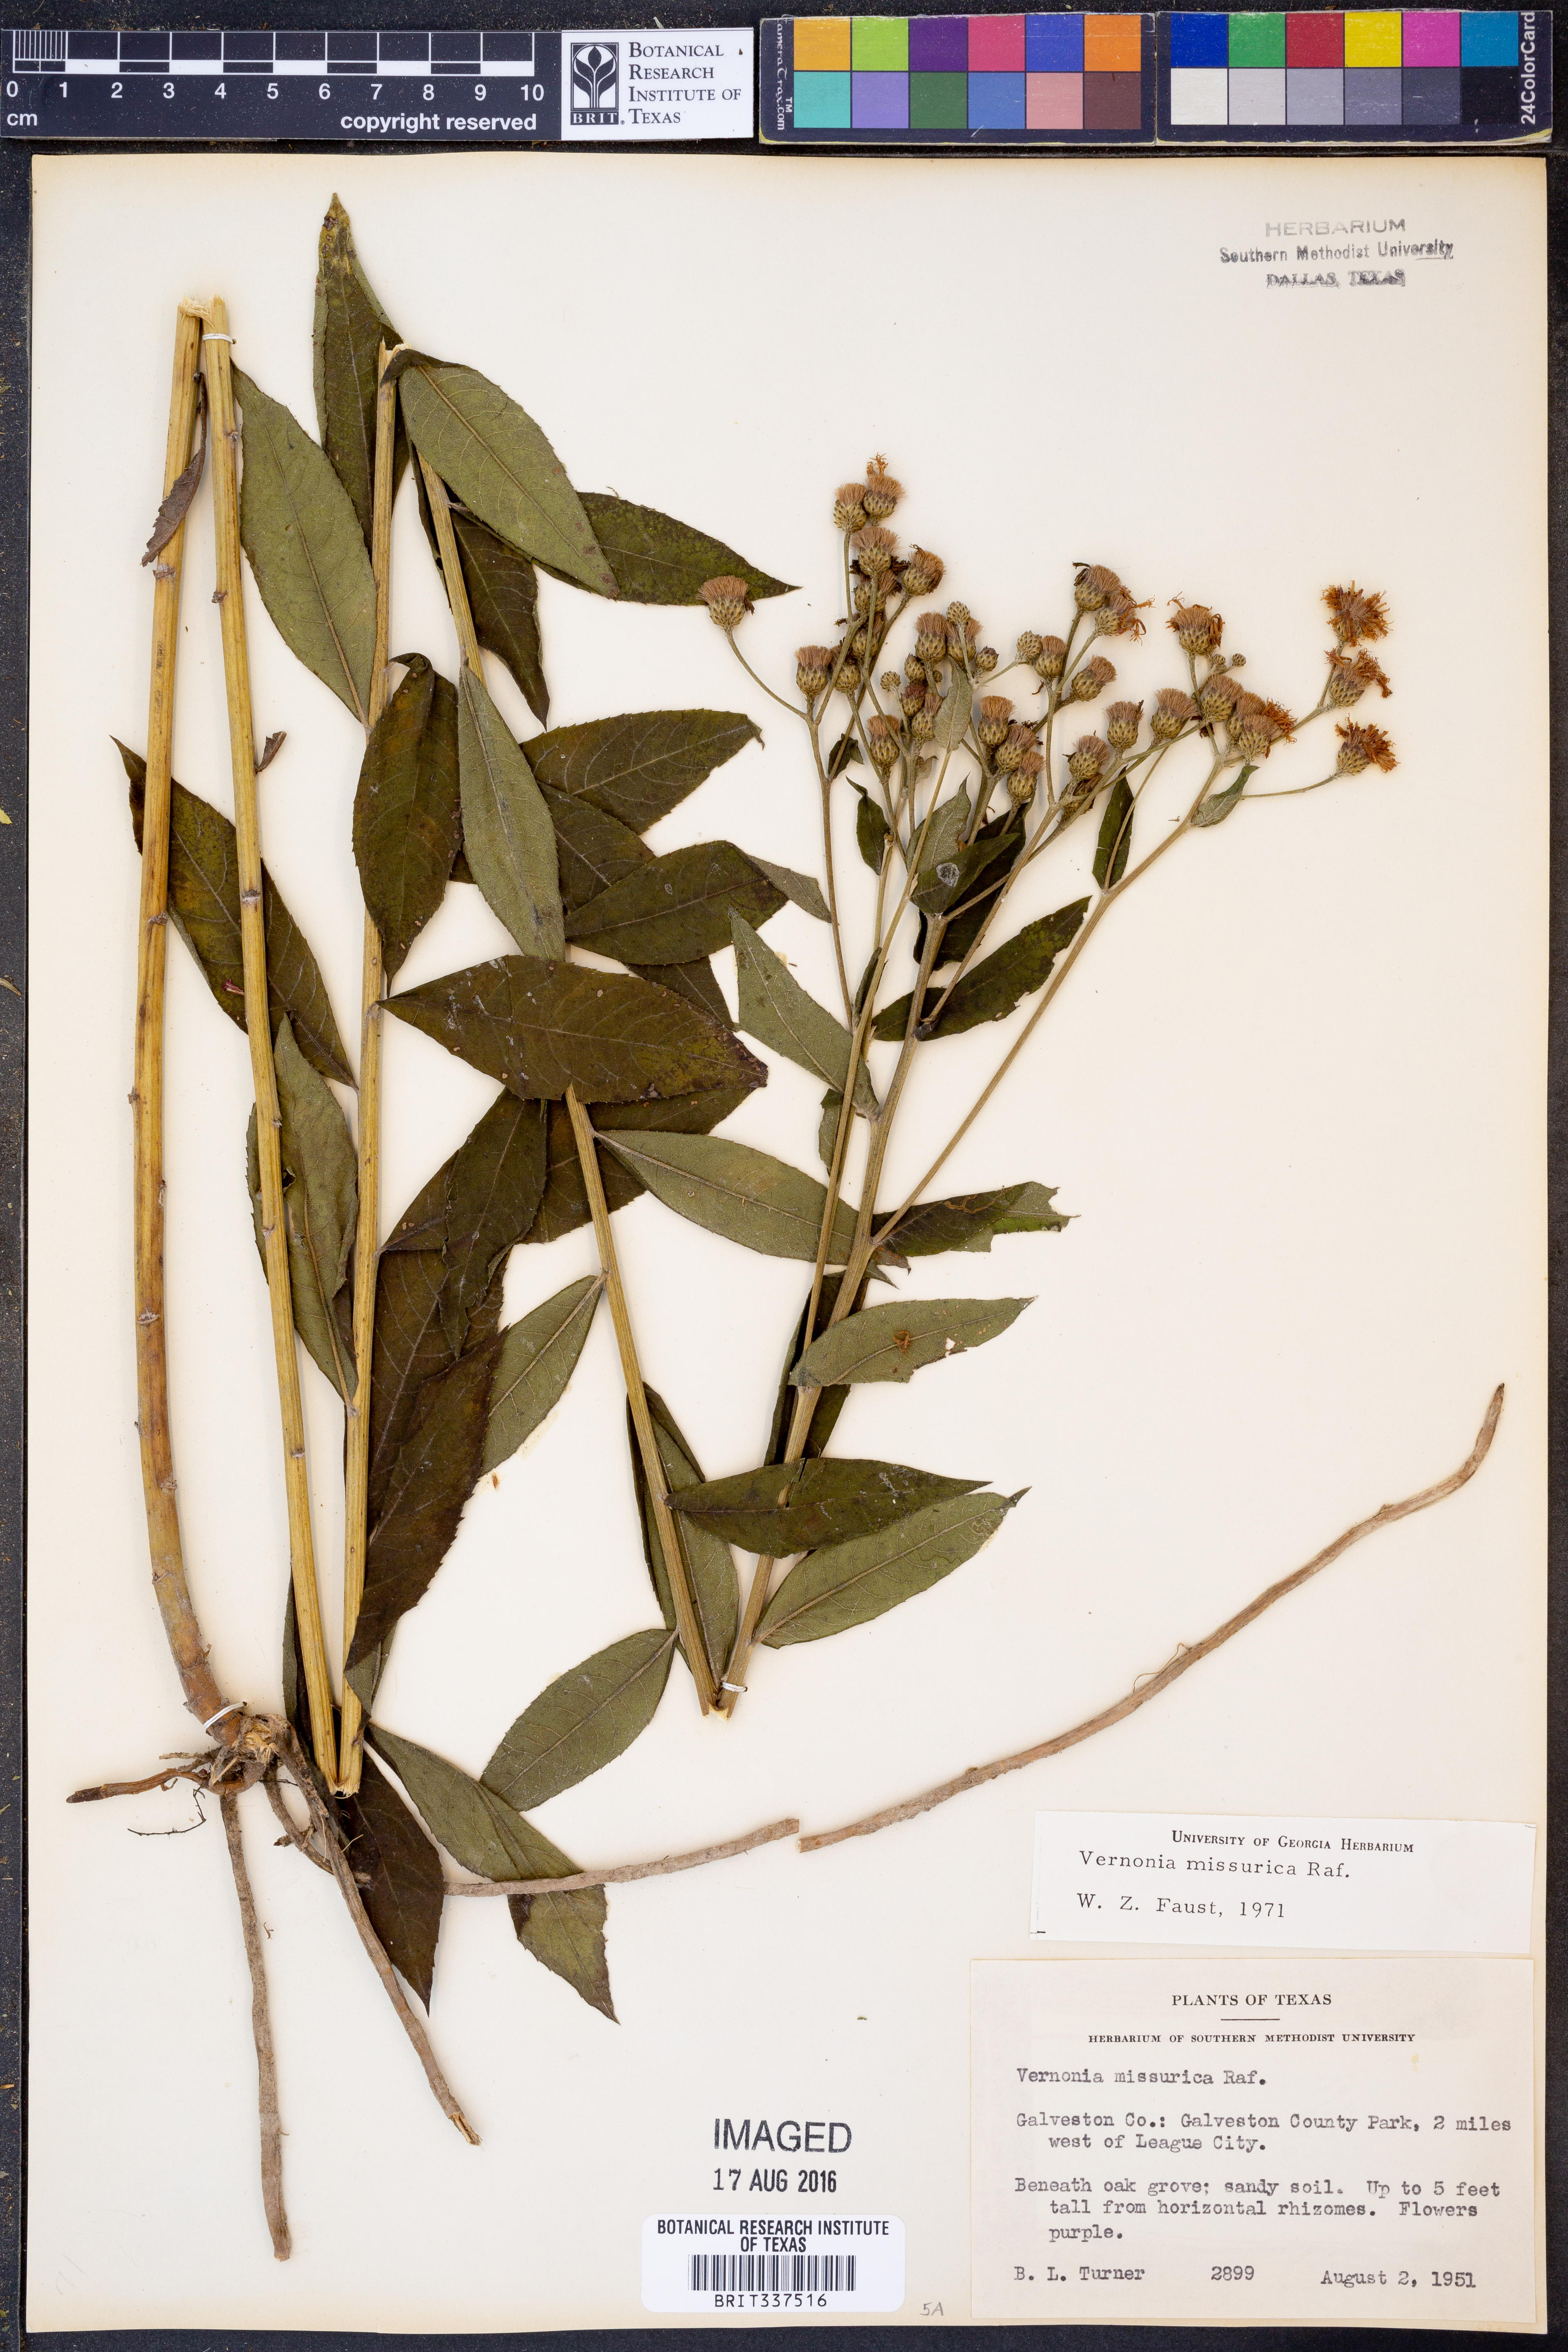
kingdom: Plantae
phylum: Tracheophyta
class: Magnoliopsida
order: Asterales
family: Asteraceae
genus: Vernonia
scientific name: Vernonia missurica
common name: Missouri ironweed
